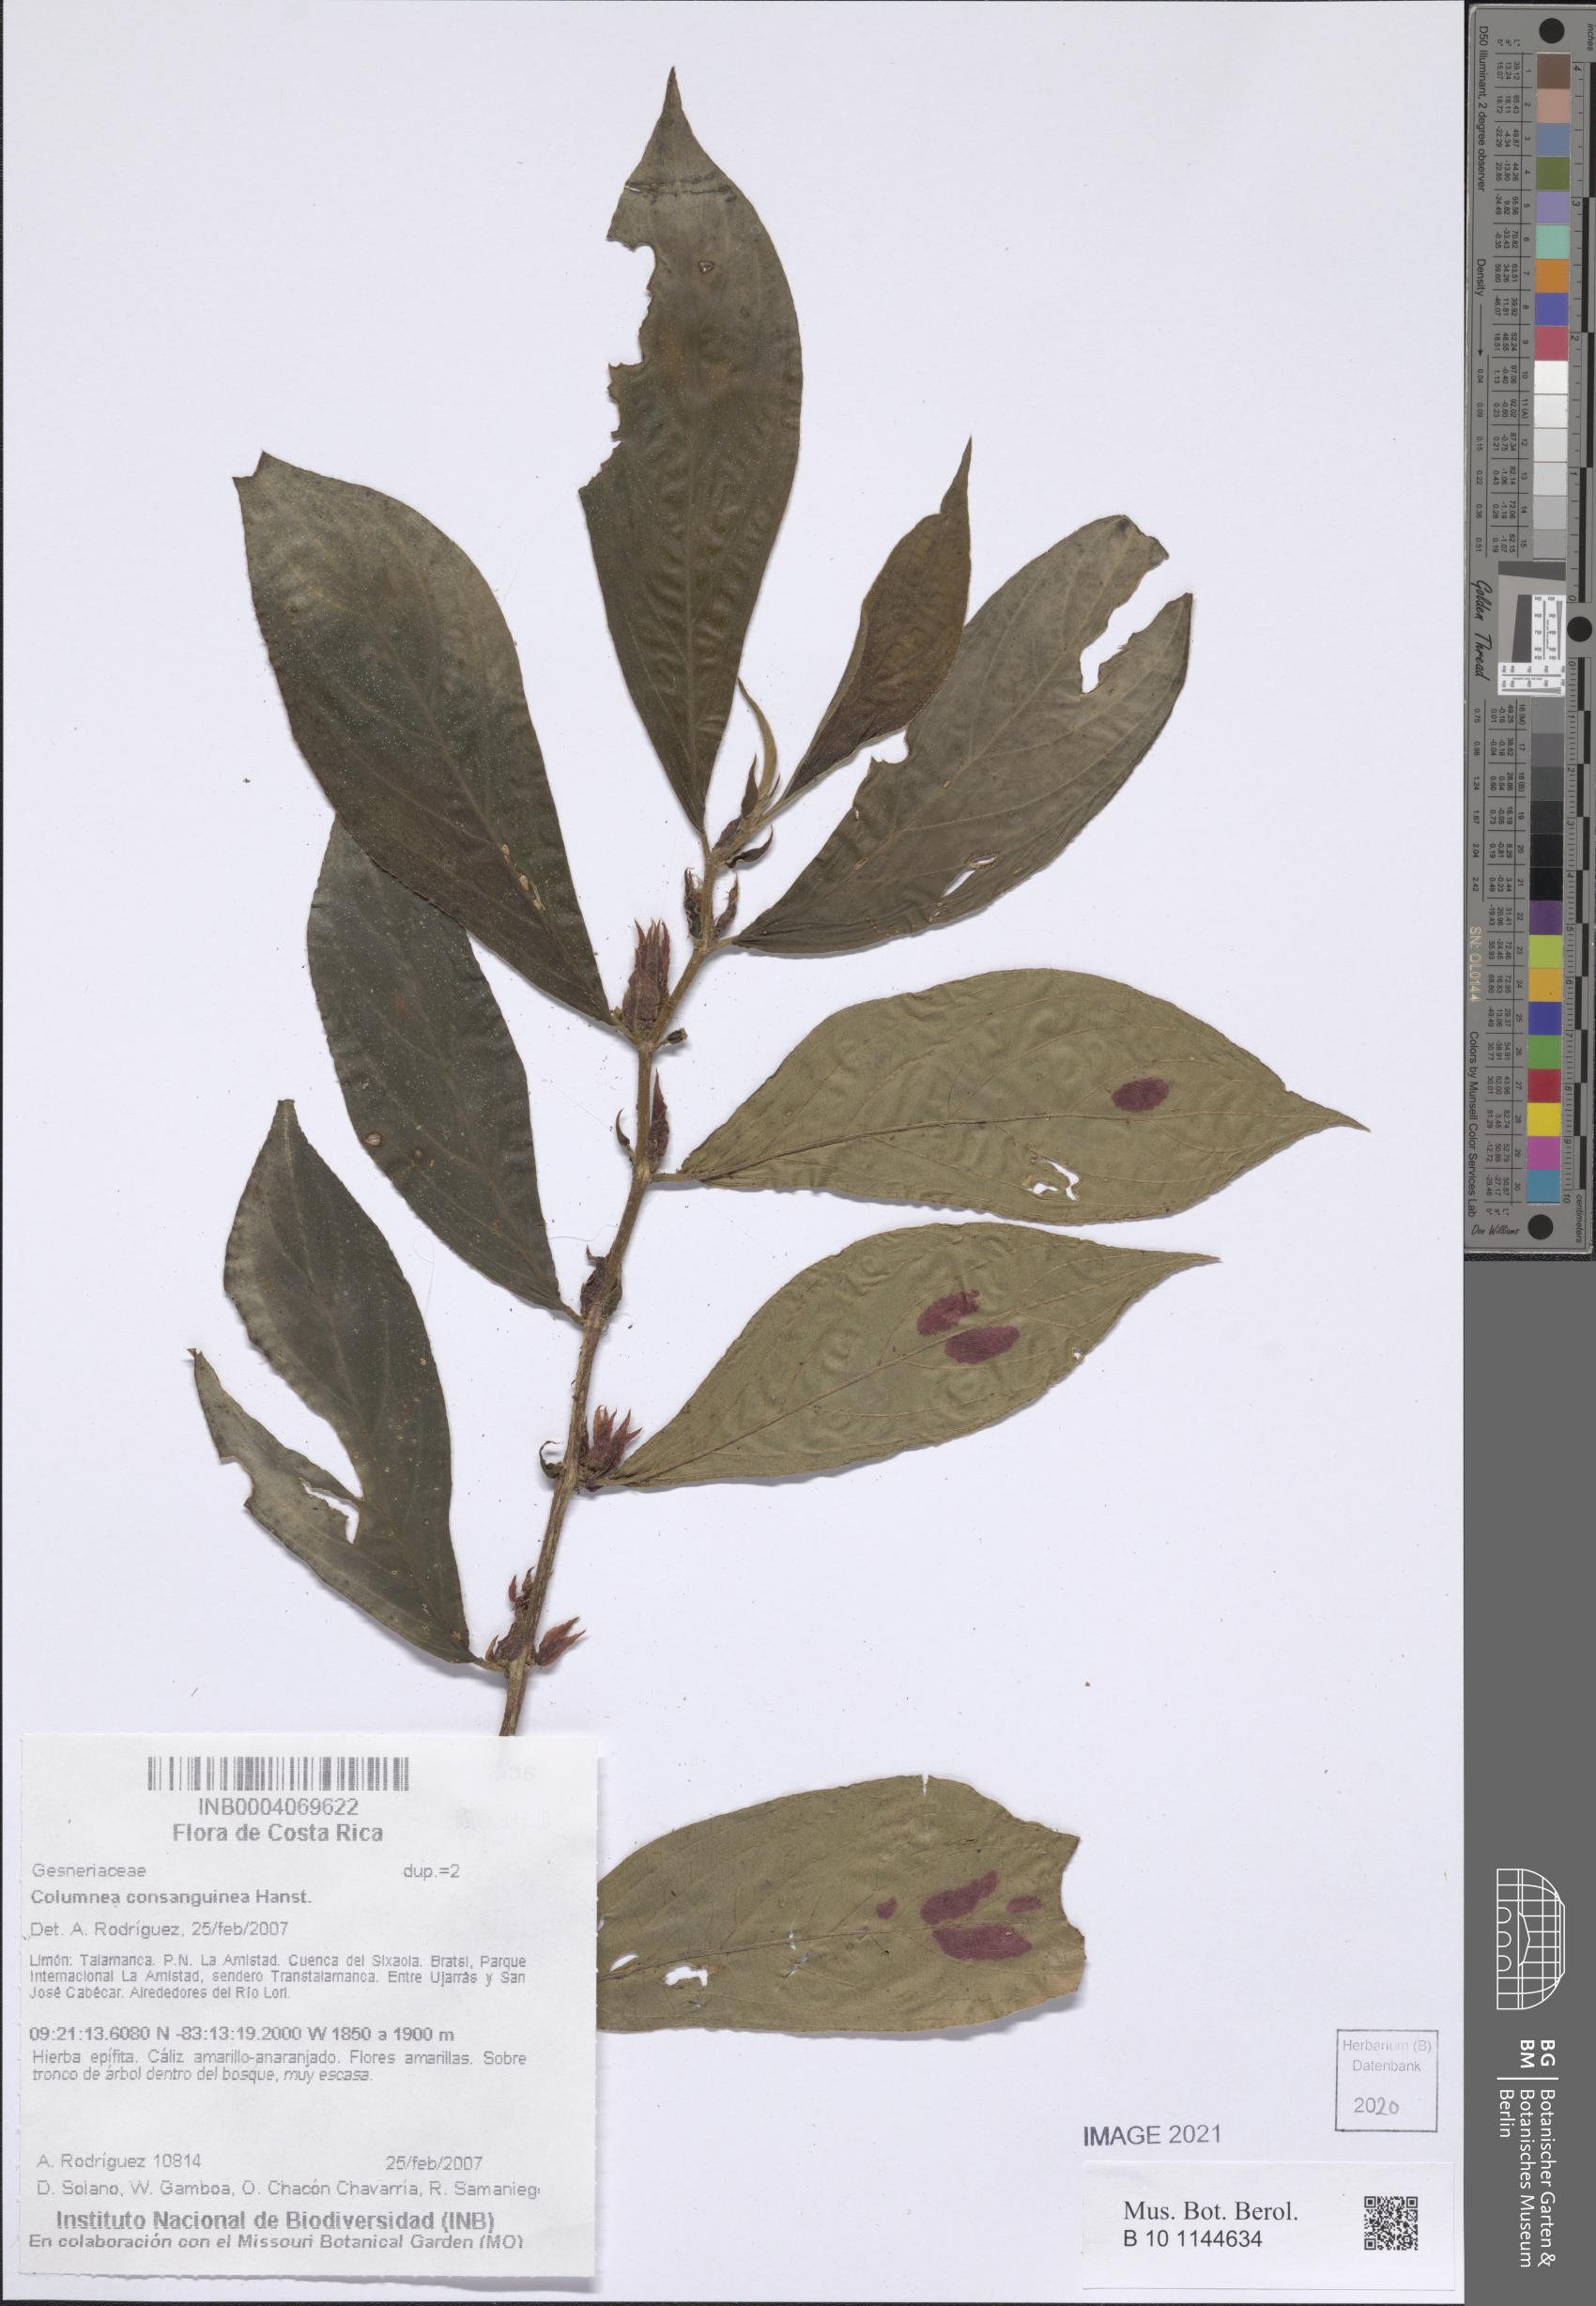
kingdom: Plantae
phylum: Tracheophyta
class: Magnoliopsida
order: Lamiales
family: Gesneriaceae
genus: Columnea
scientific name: Columnea consanguinea
